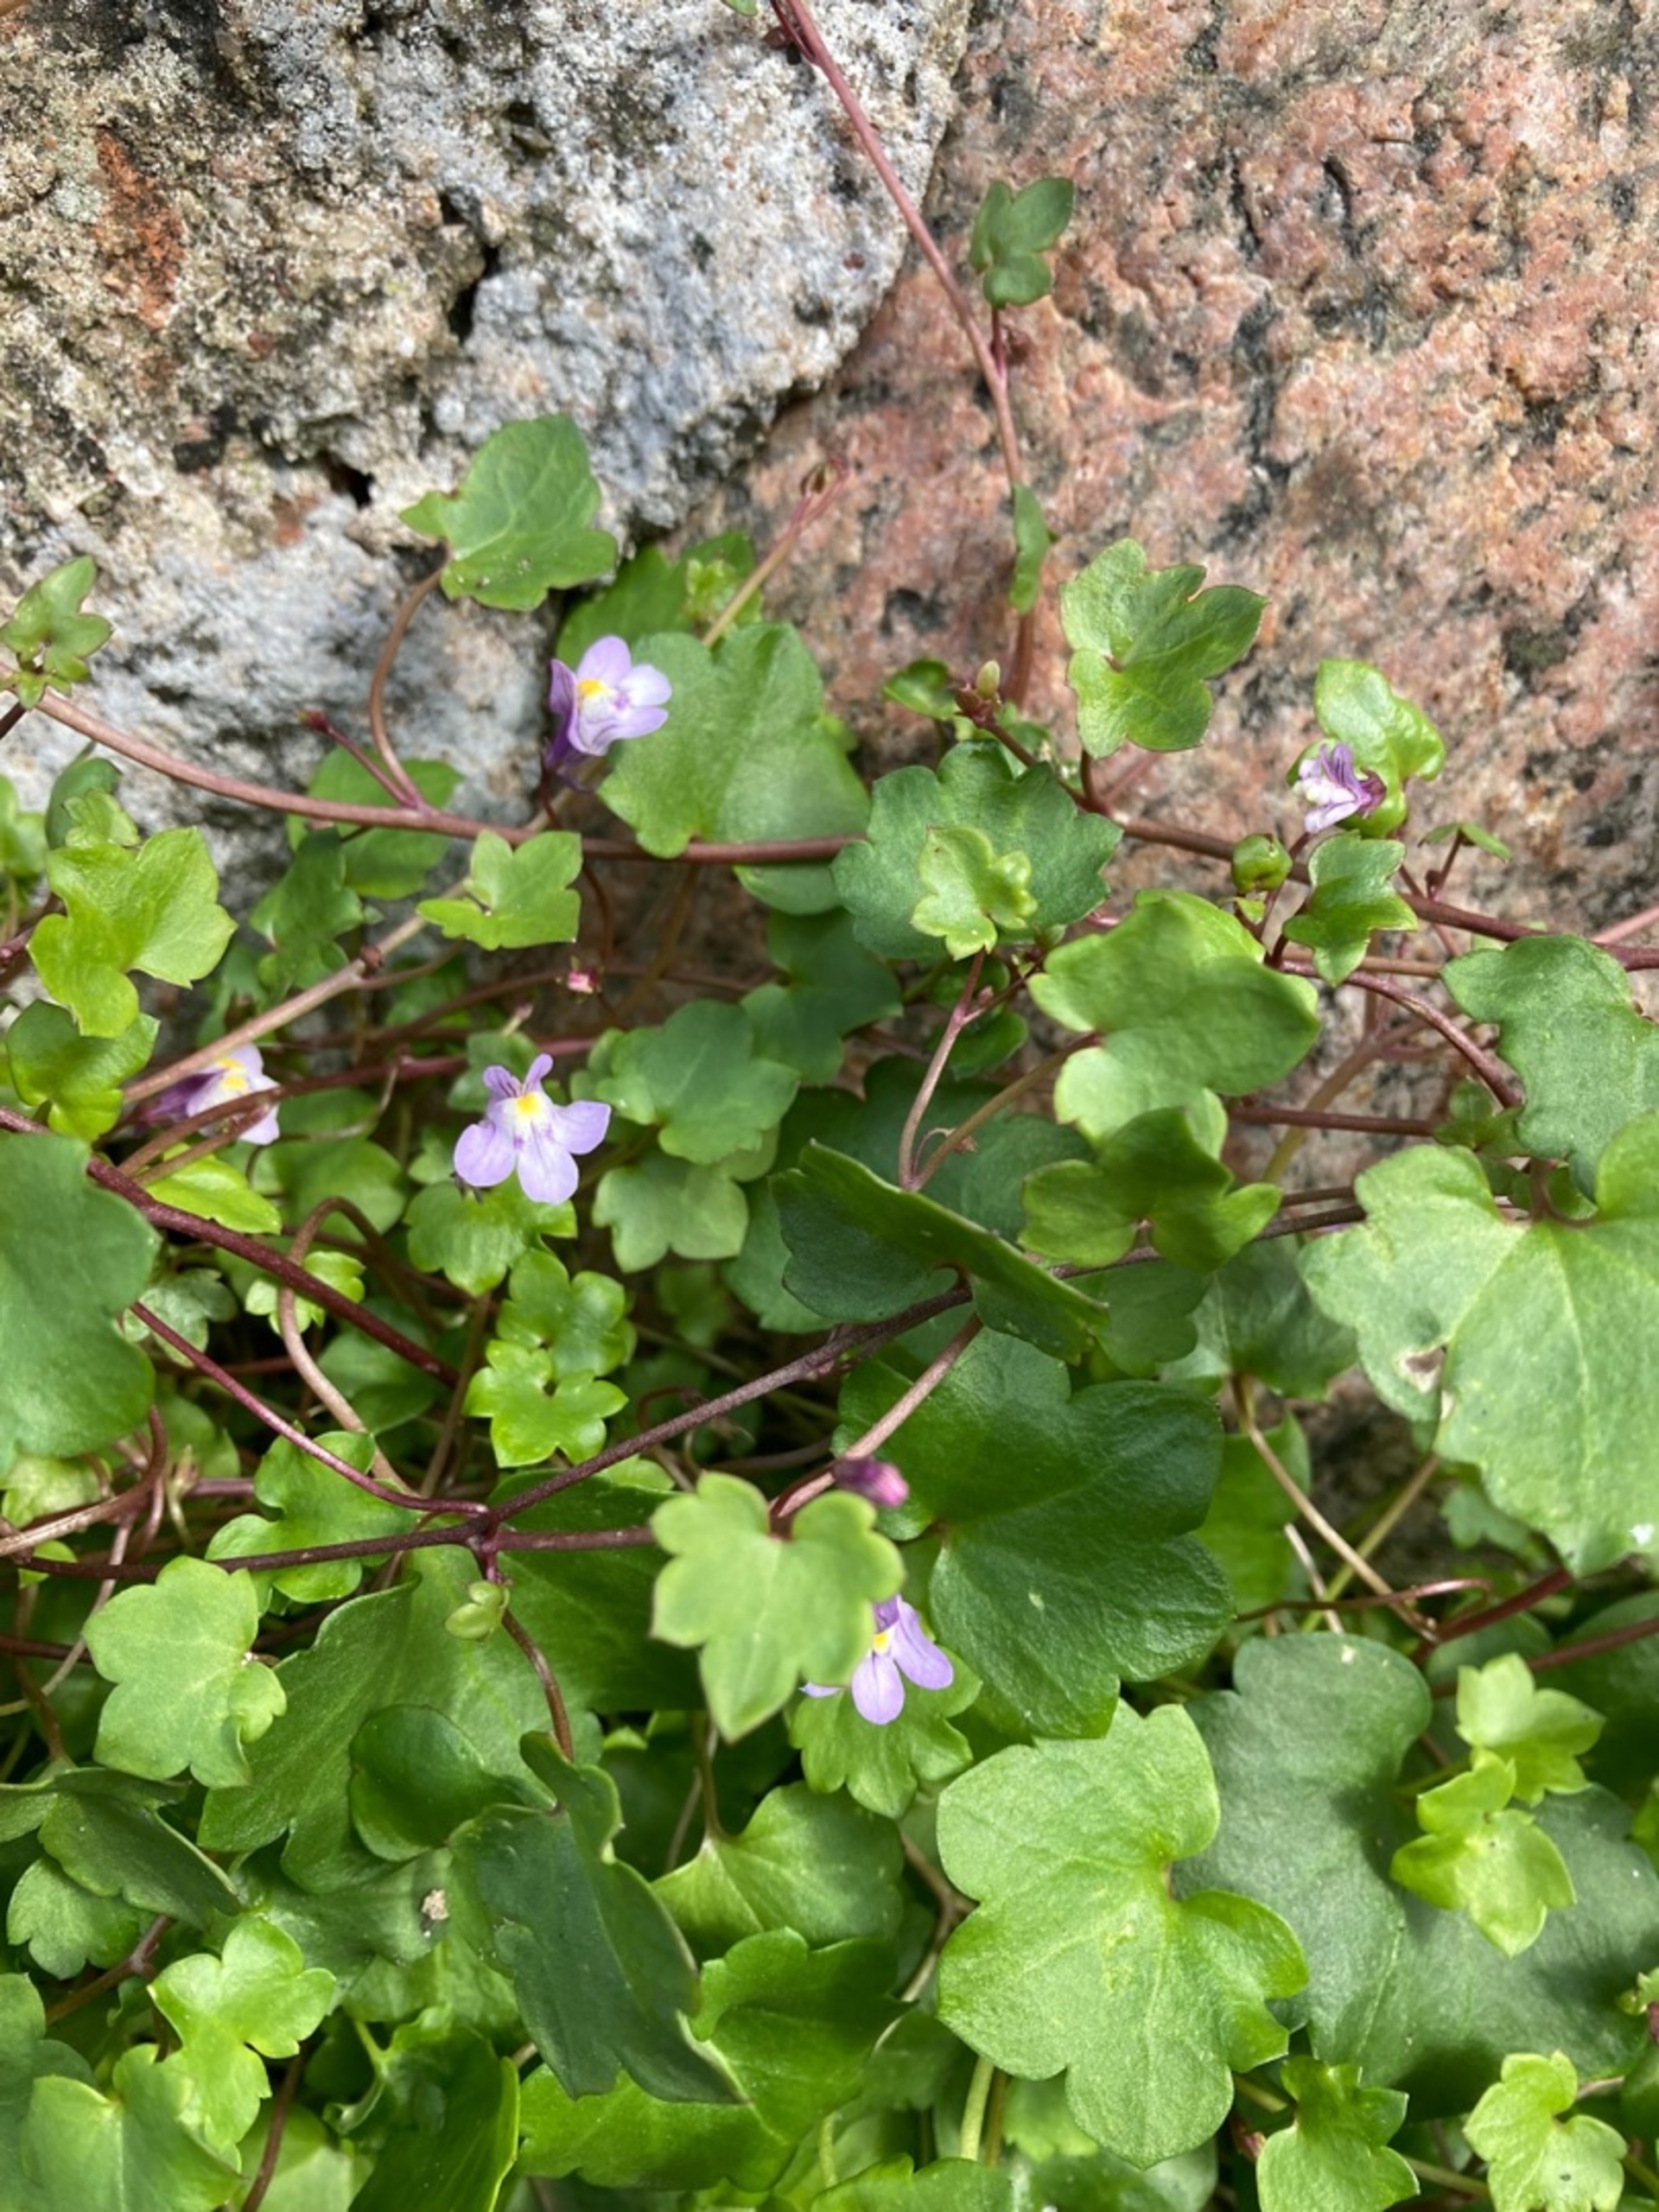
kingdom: Plantae
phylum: Tracheophyta
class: Magnoliopsida
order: Lamiales
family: Plantaginaceae
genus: Cymbalaria
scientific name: Cymbalaria muralis
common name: Vedbend-torskemund
